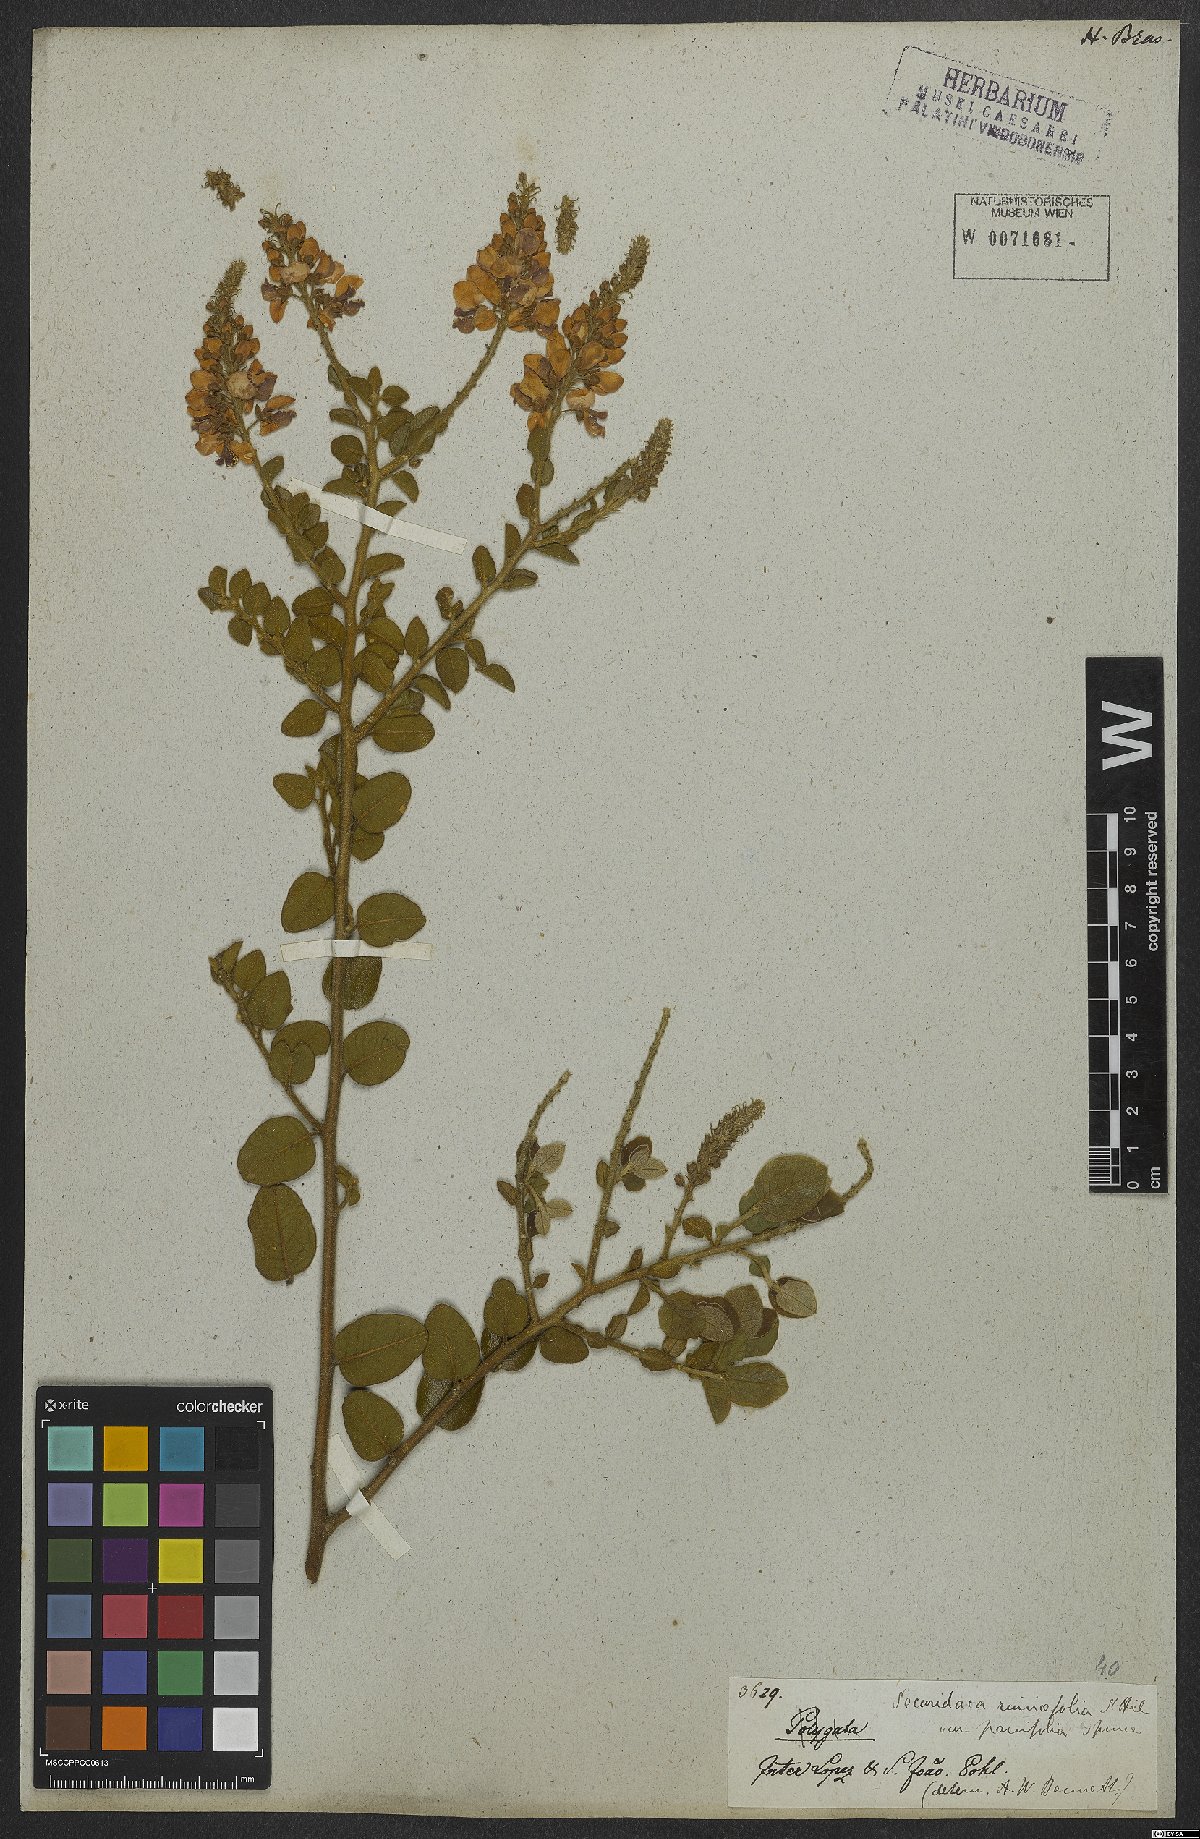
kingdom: Plantae
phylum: Tracheophyta
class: Magnoliopsida
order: Fabales
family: Polygalaceae
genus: Securidaca
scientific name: Securidaca rivinifolia
